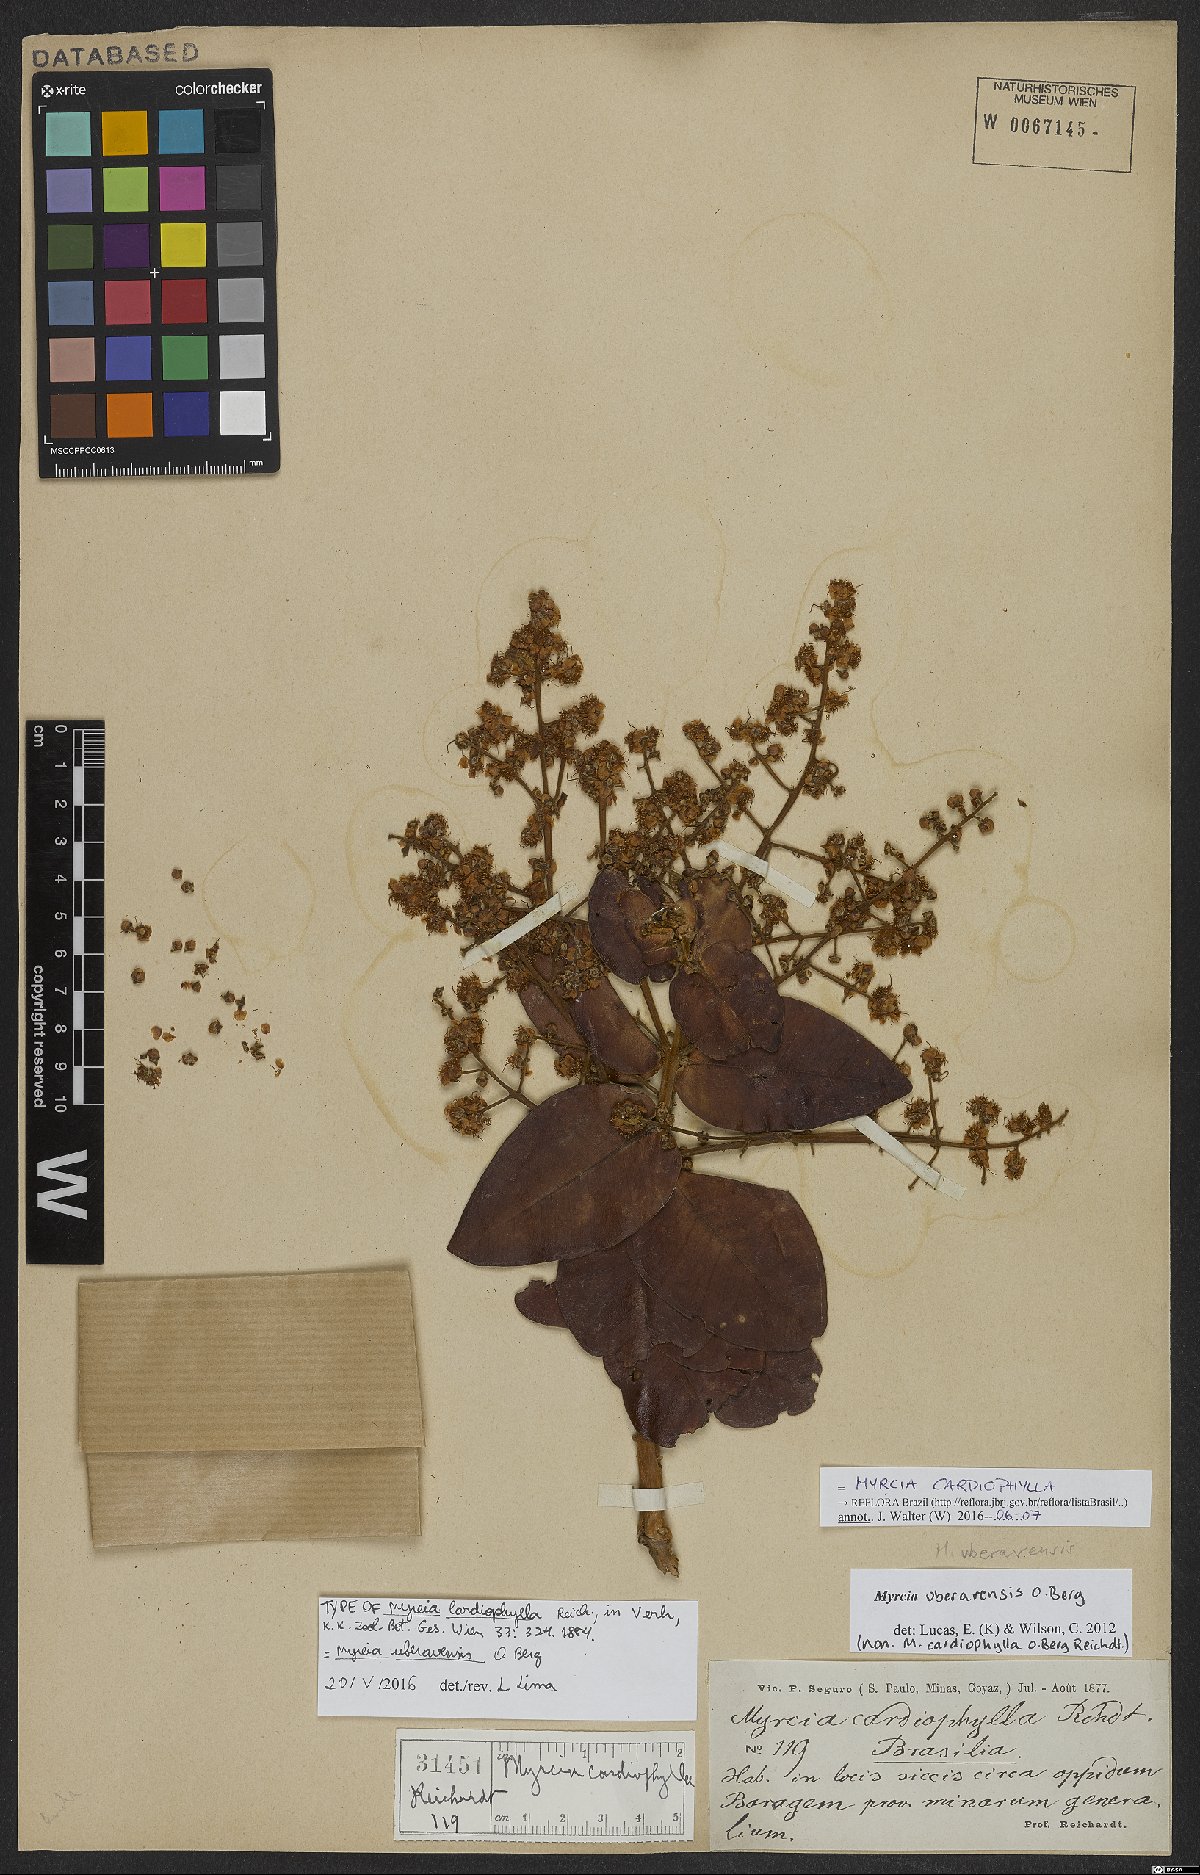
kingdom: Plantae
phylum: Tracheophyta
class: Magnoliopsida
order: Myrtales
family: Myrtaceae
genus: Myrcia
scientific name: Myrcia cardiophylla
